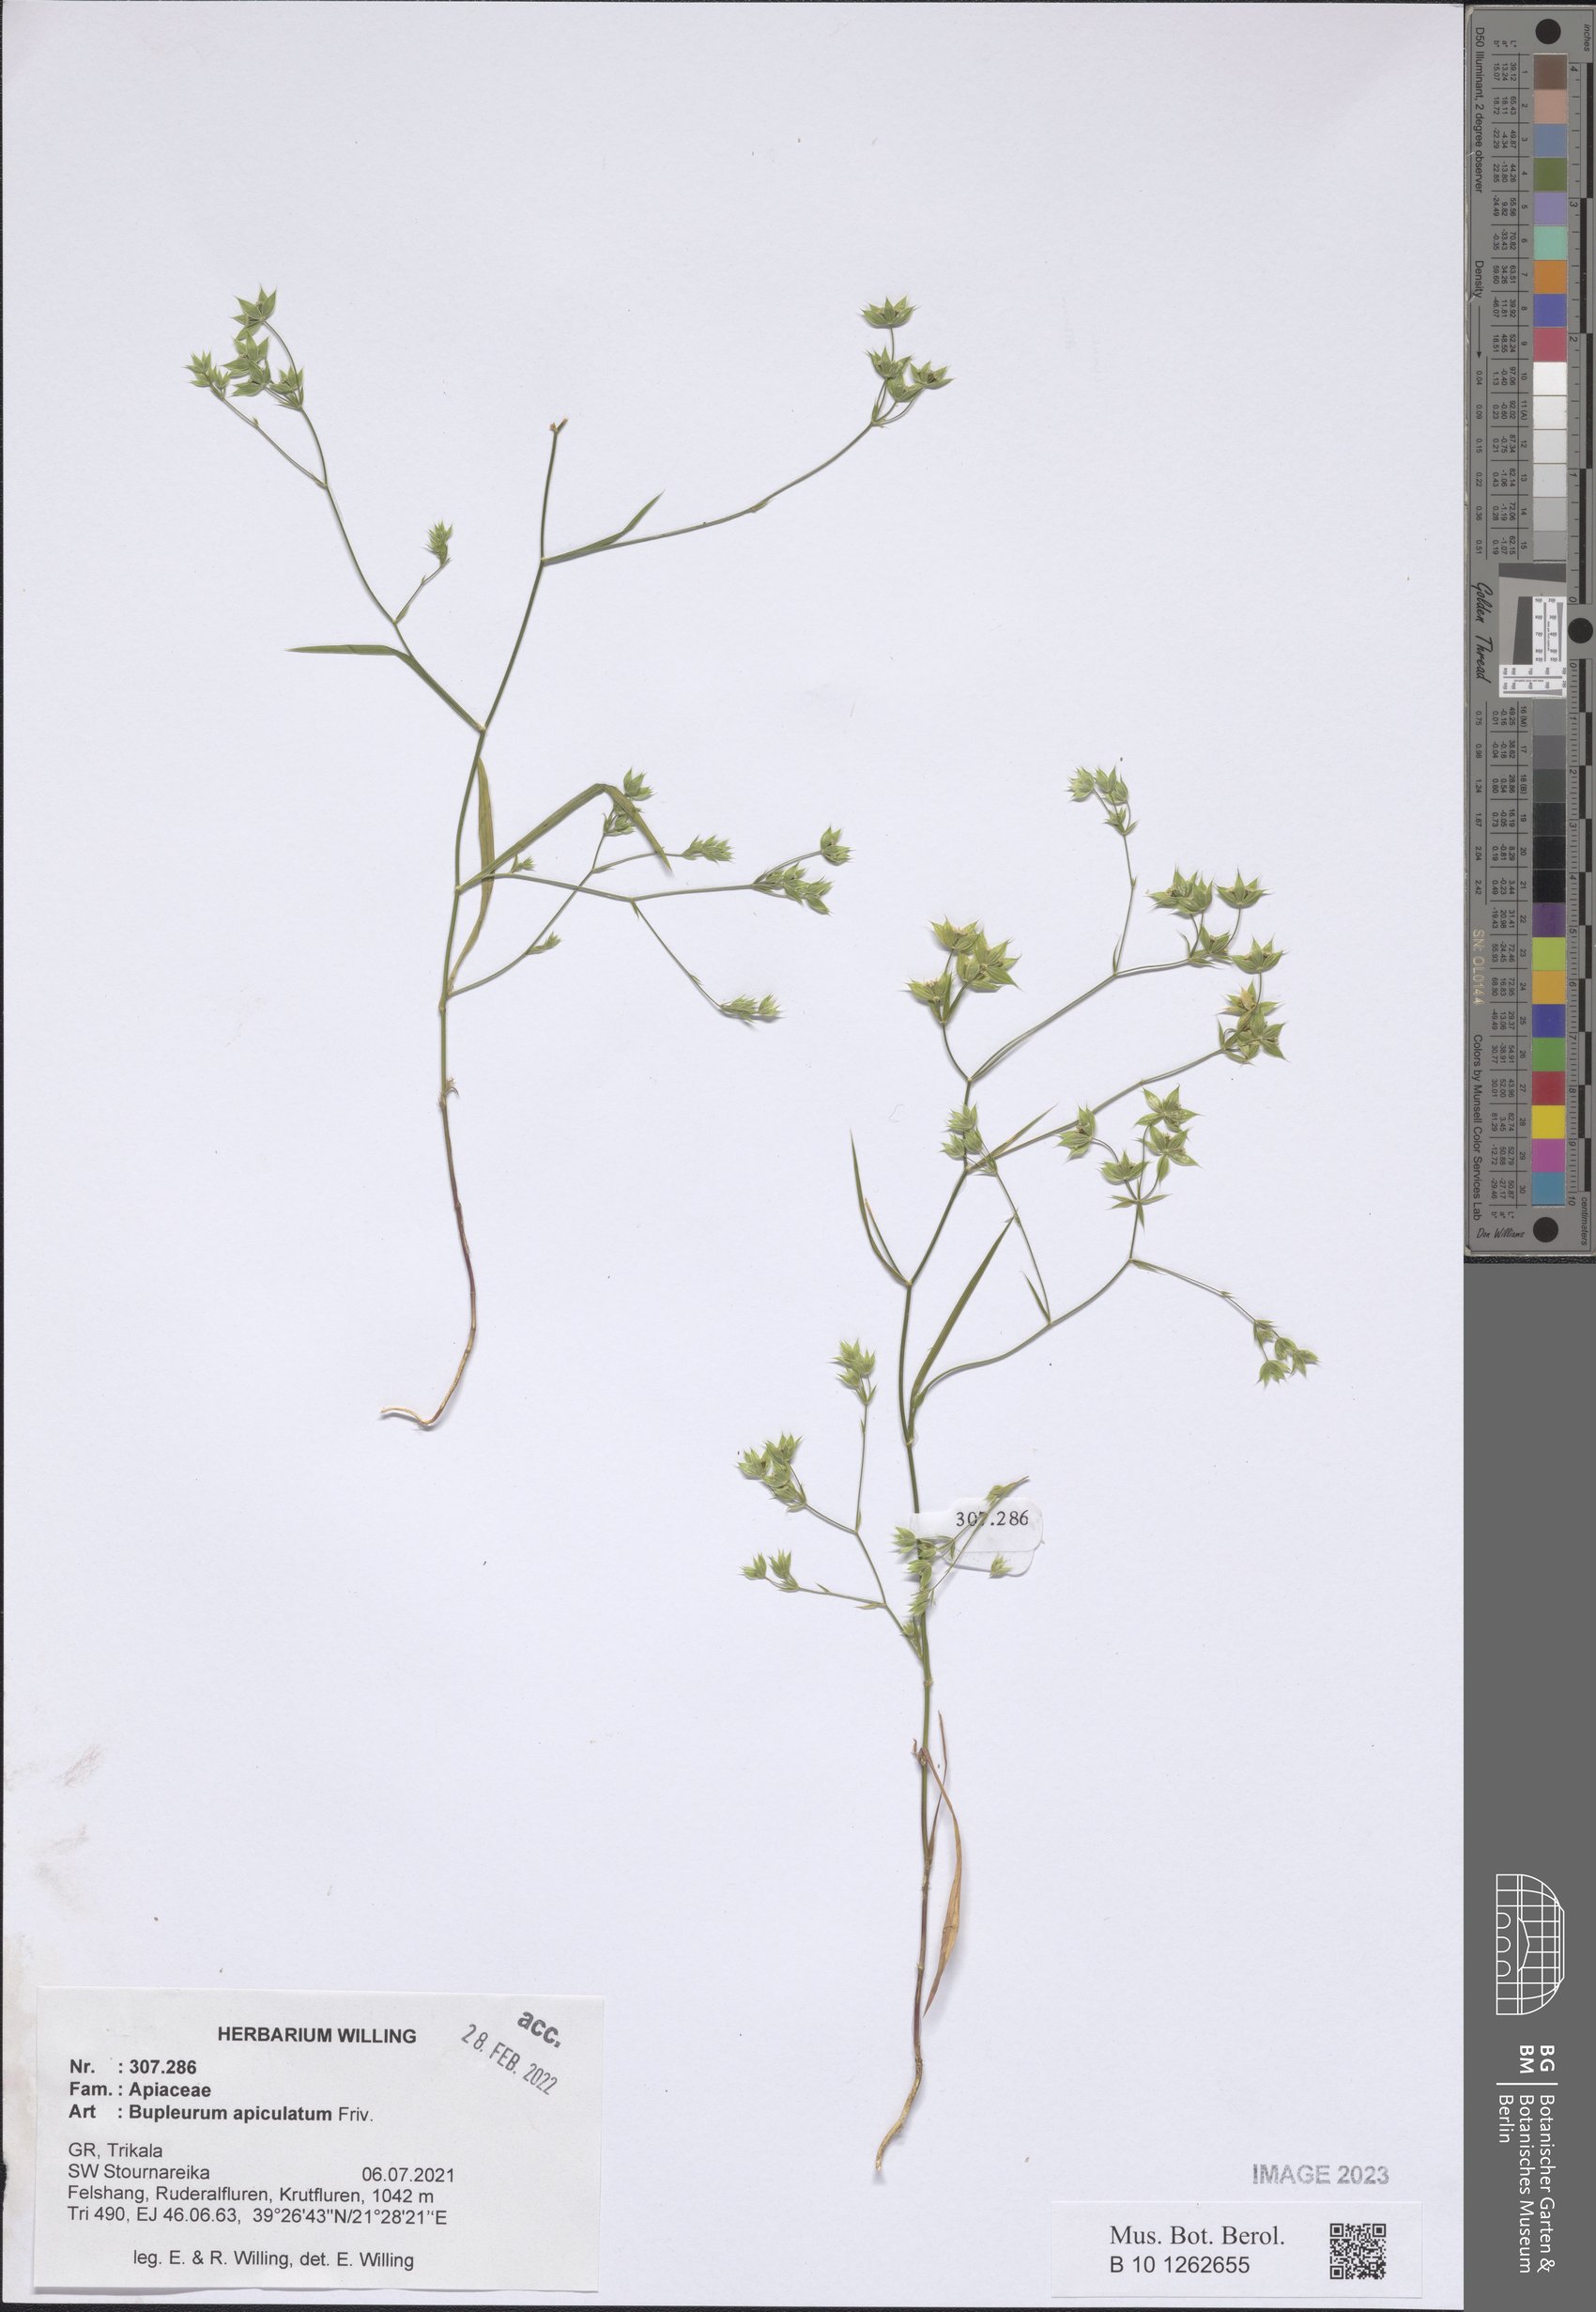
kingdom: Plantae
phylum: Tracheophyta
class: Magnoliopsida
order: Apiales
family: Apiaceae
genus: Bupleurum
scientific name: Bupleurum apiculatum
